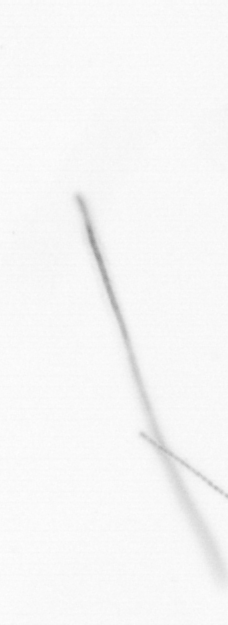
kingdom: Chromista
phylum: Ochrophyta
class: Bacillariophyceae
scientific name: Bacillariophyceae
